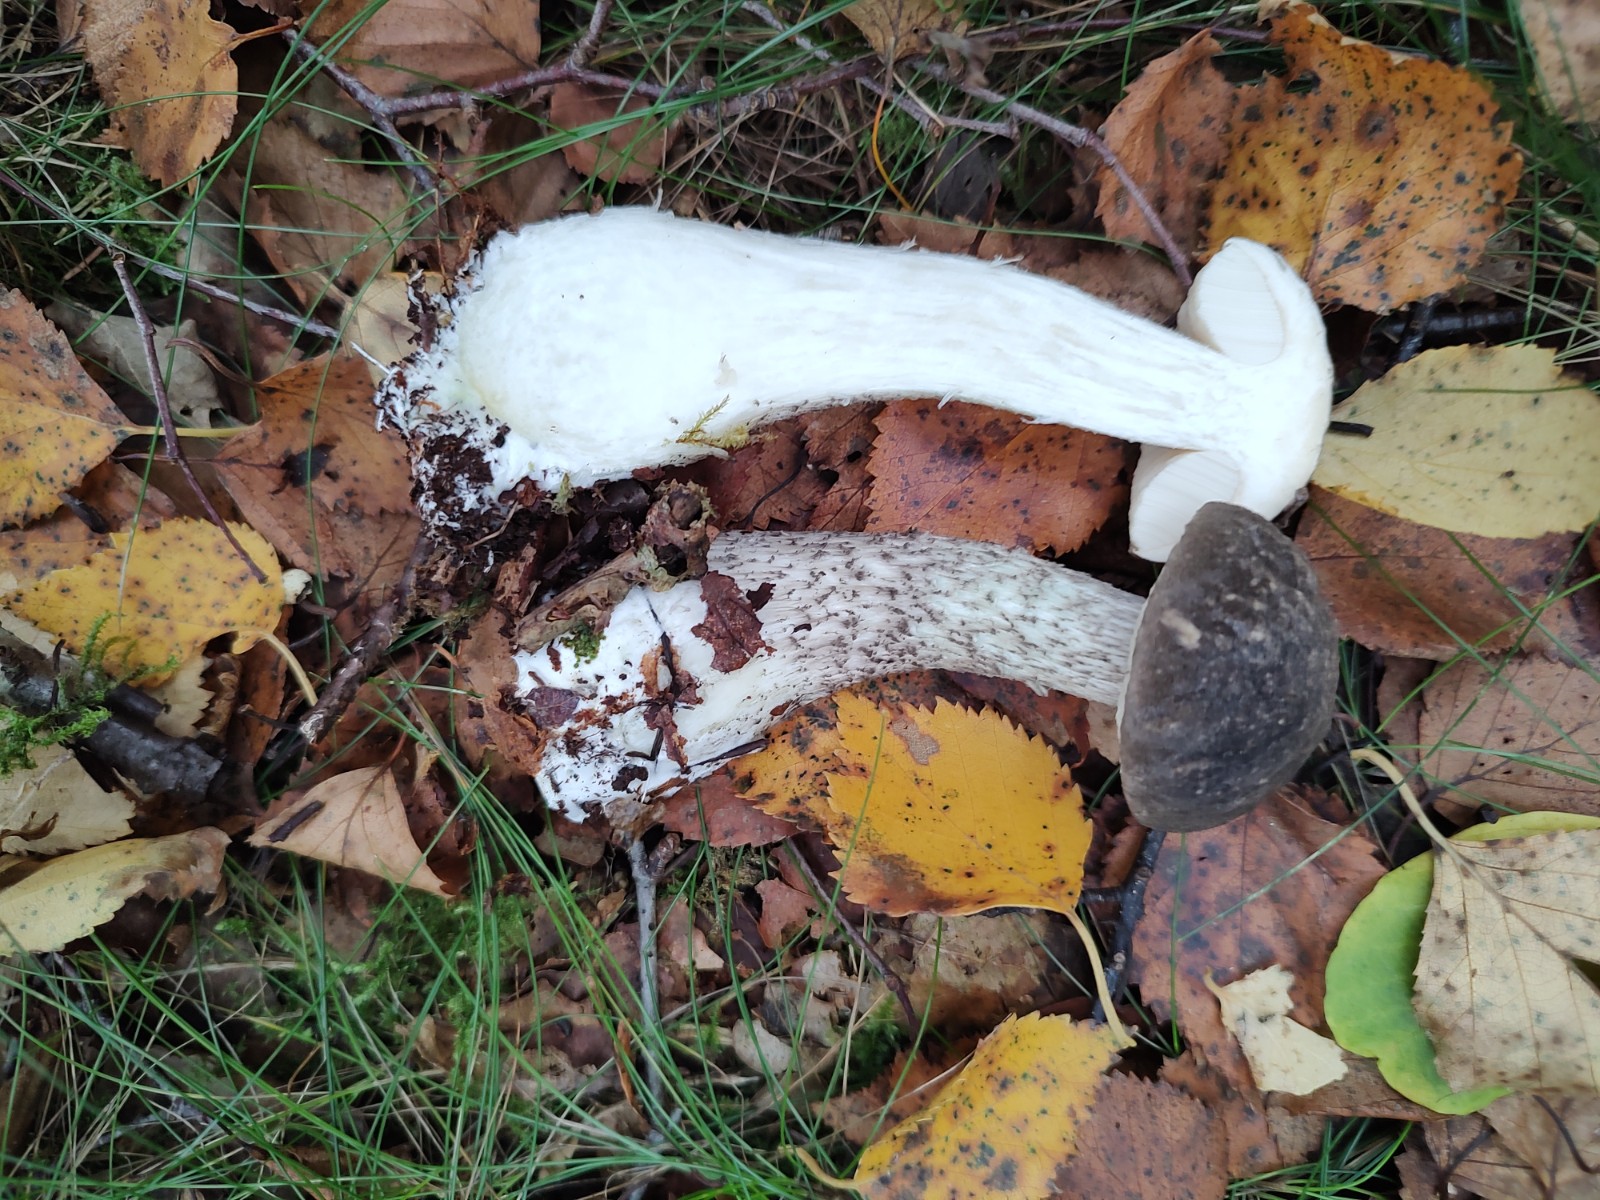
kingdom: Fungi
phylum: Basidiomycota
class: Agaricomycetes
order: Boletales
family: Boletaceae
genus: Leccinum
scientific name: Leccinum variicolor
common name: flammet skælrørhat
